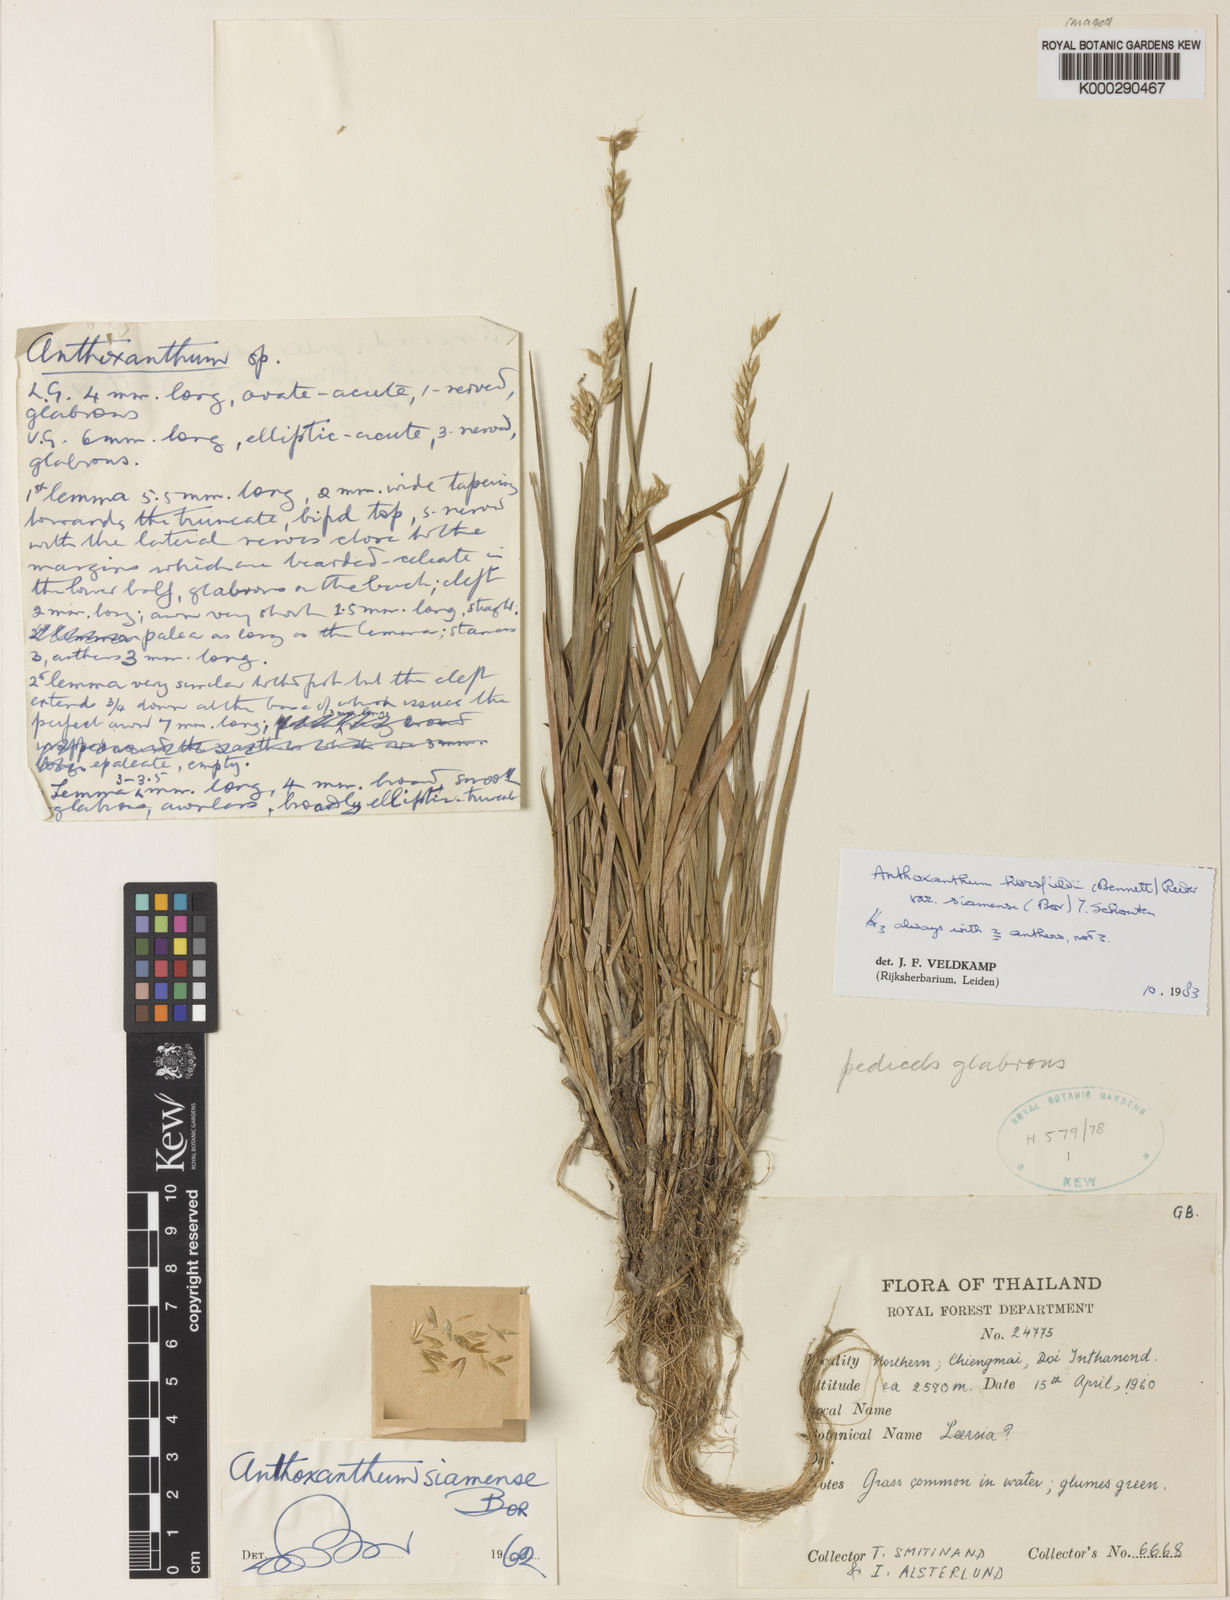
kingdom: Plantae
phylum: Tracheophyta
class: Liliopsida
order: Poales
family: Poaceae
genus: Anthoxanthum
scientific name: Anthoxanthum horsfieldii
